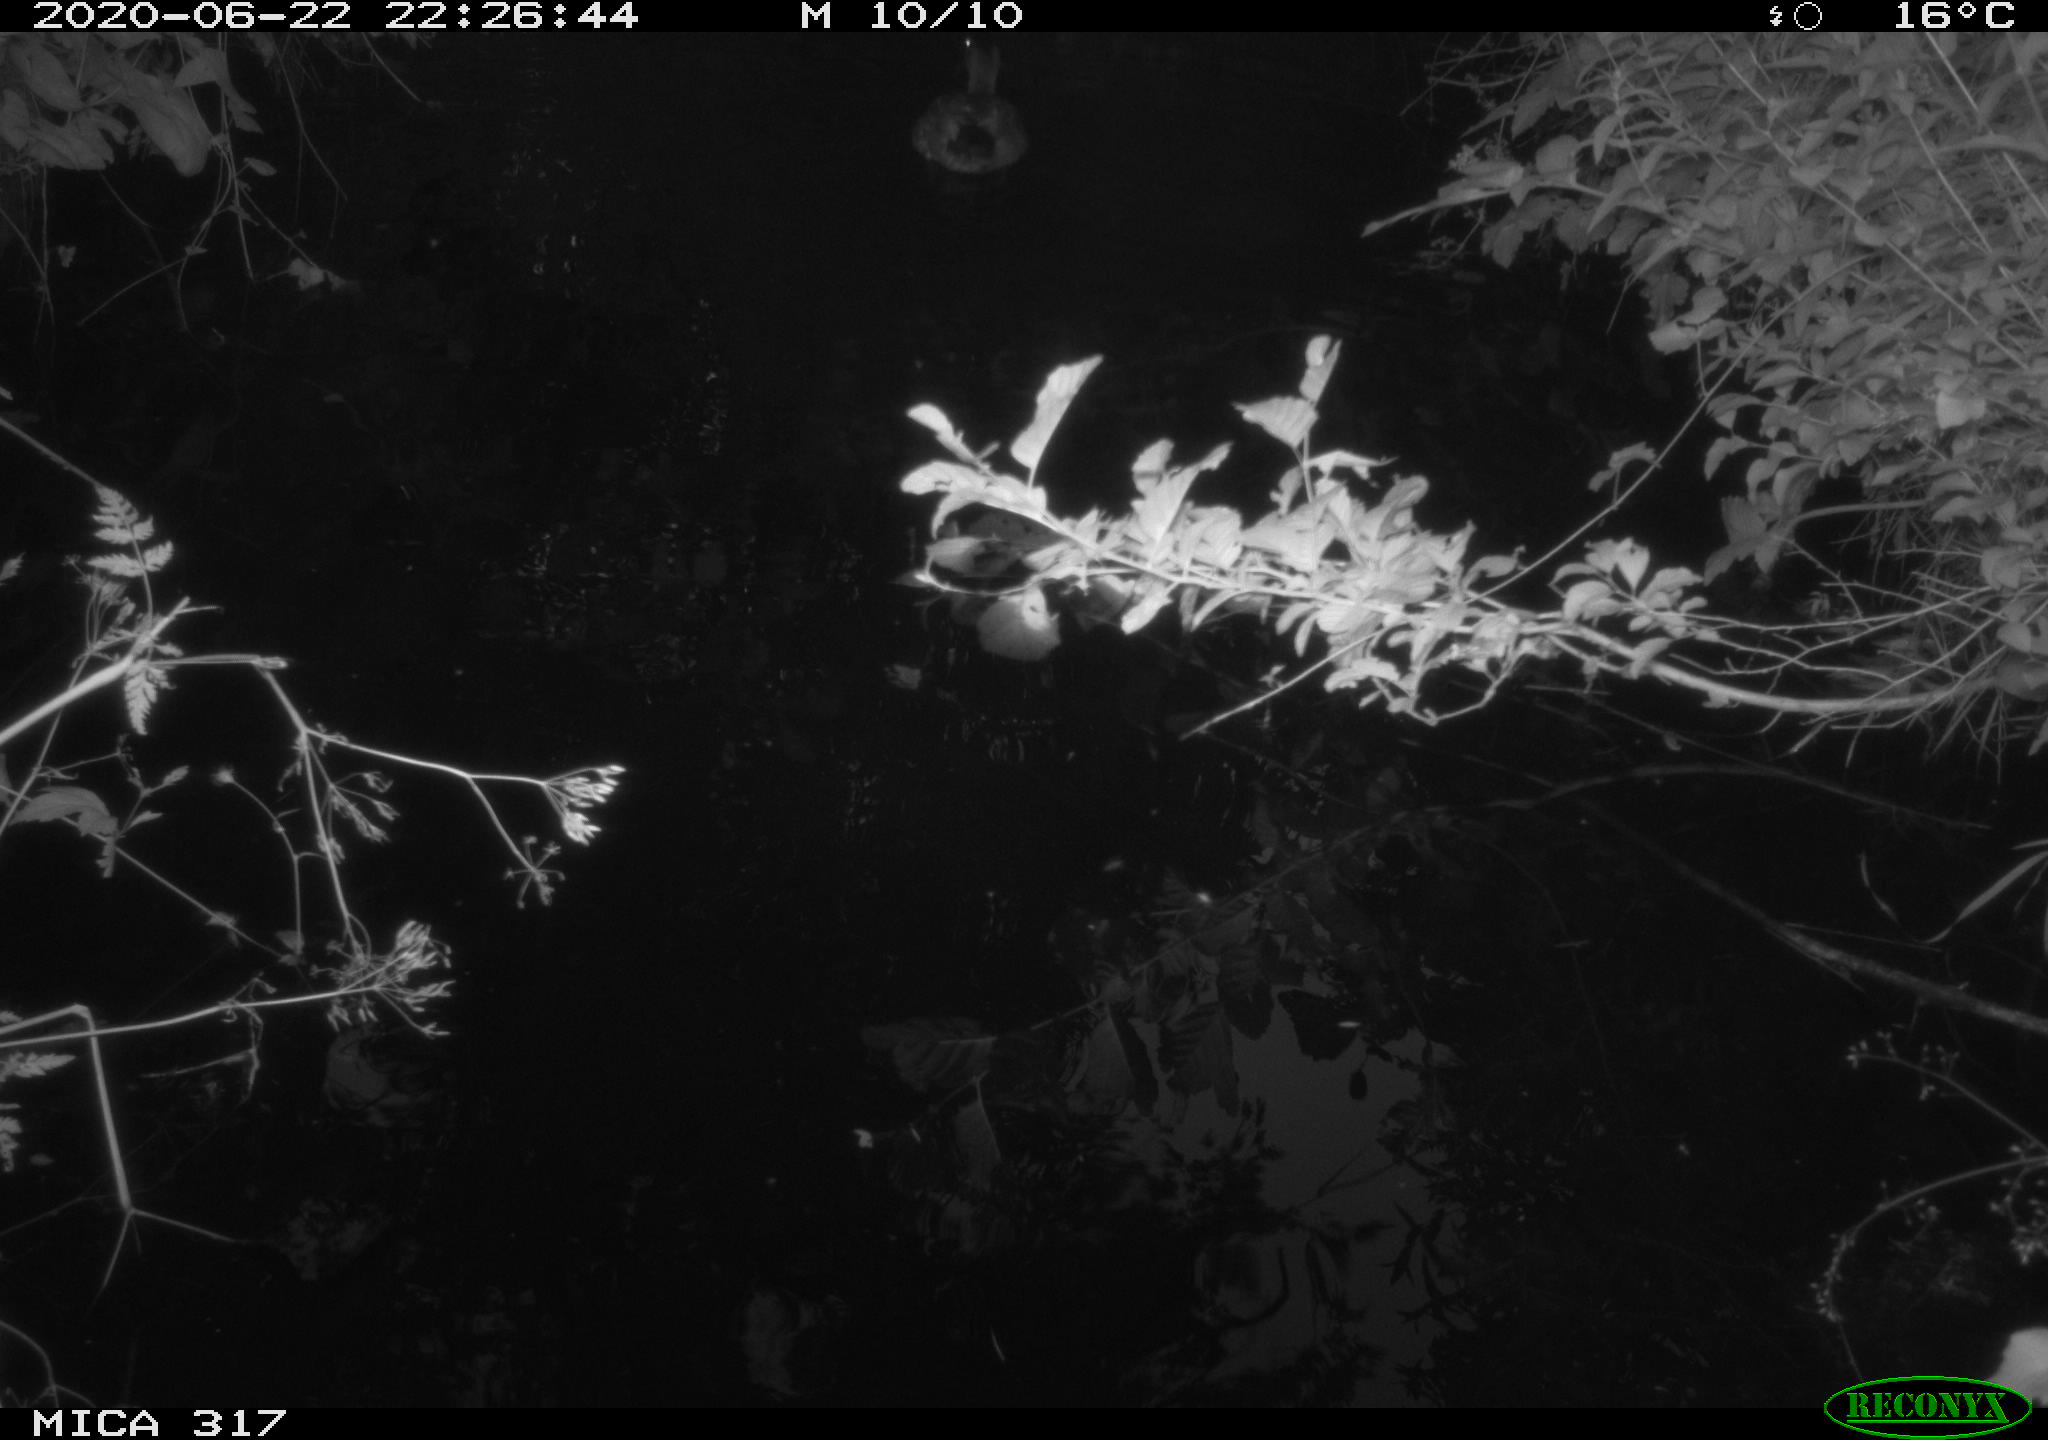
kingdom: Animalia
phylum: Chordata
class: Aves
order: Anseriformes
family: Anatidae
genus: Anas
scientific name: Anas platyrhynchos
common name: Mallard
